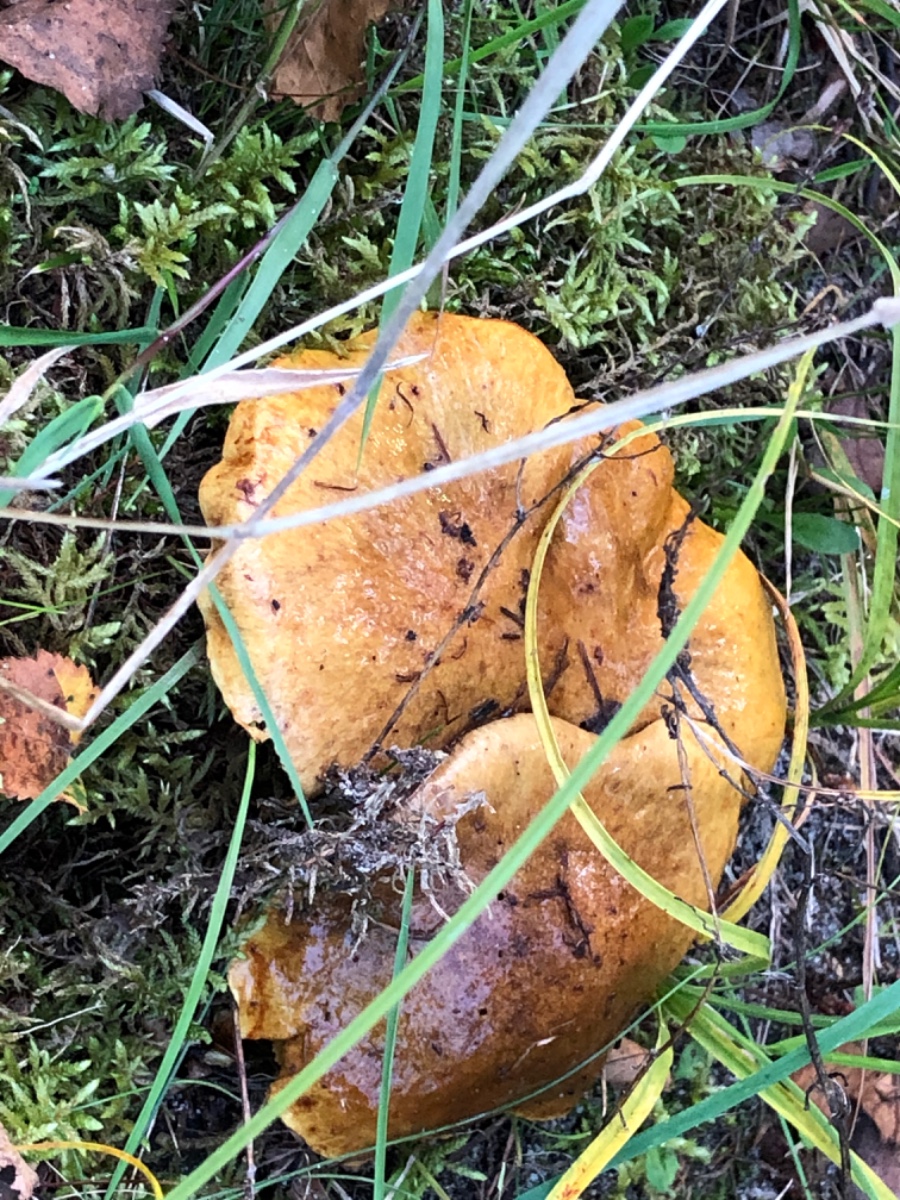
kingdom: Fungi
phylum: Basidiomycota
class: Agaricomycetes
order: Boletales
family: Suillaceae
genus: Suillus
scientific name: Suillus grevillei
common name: lærke-slimrørhat
